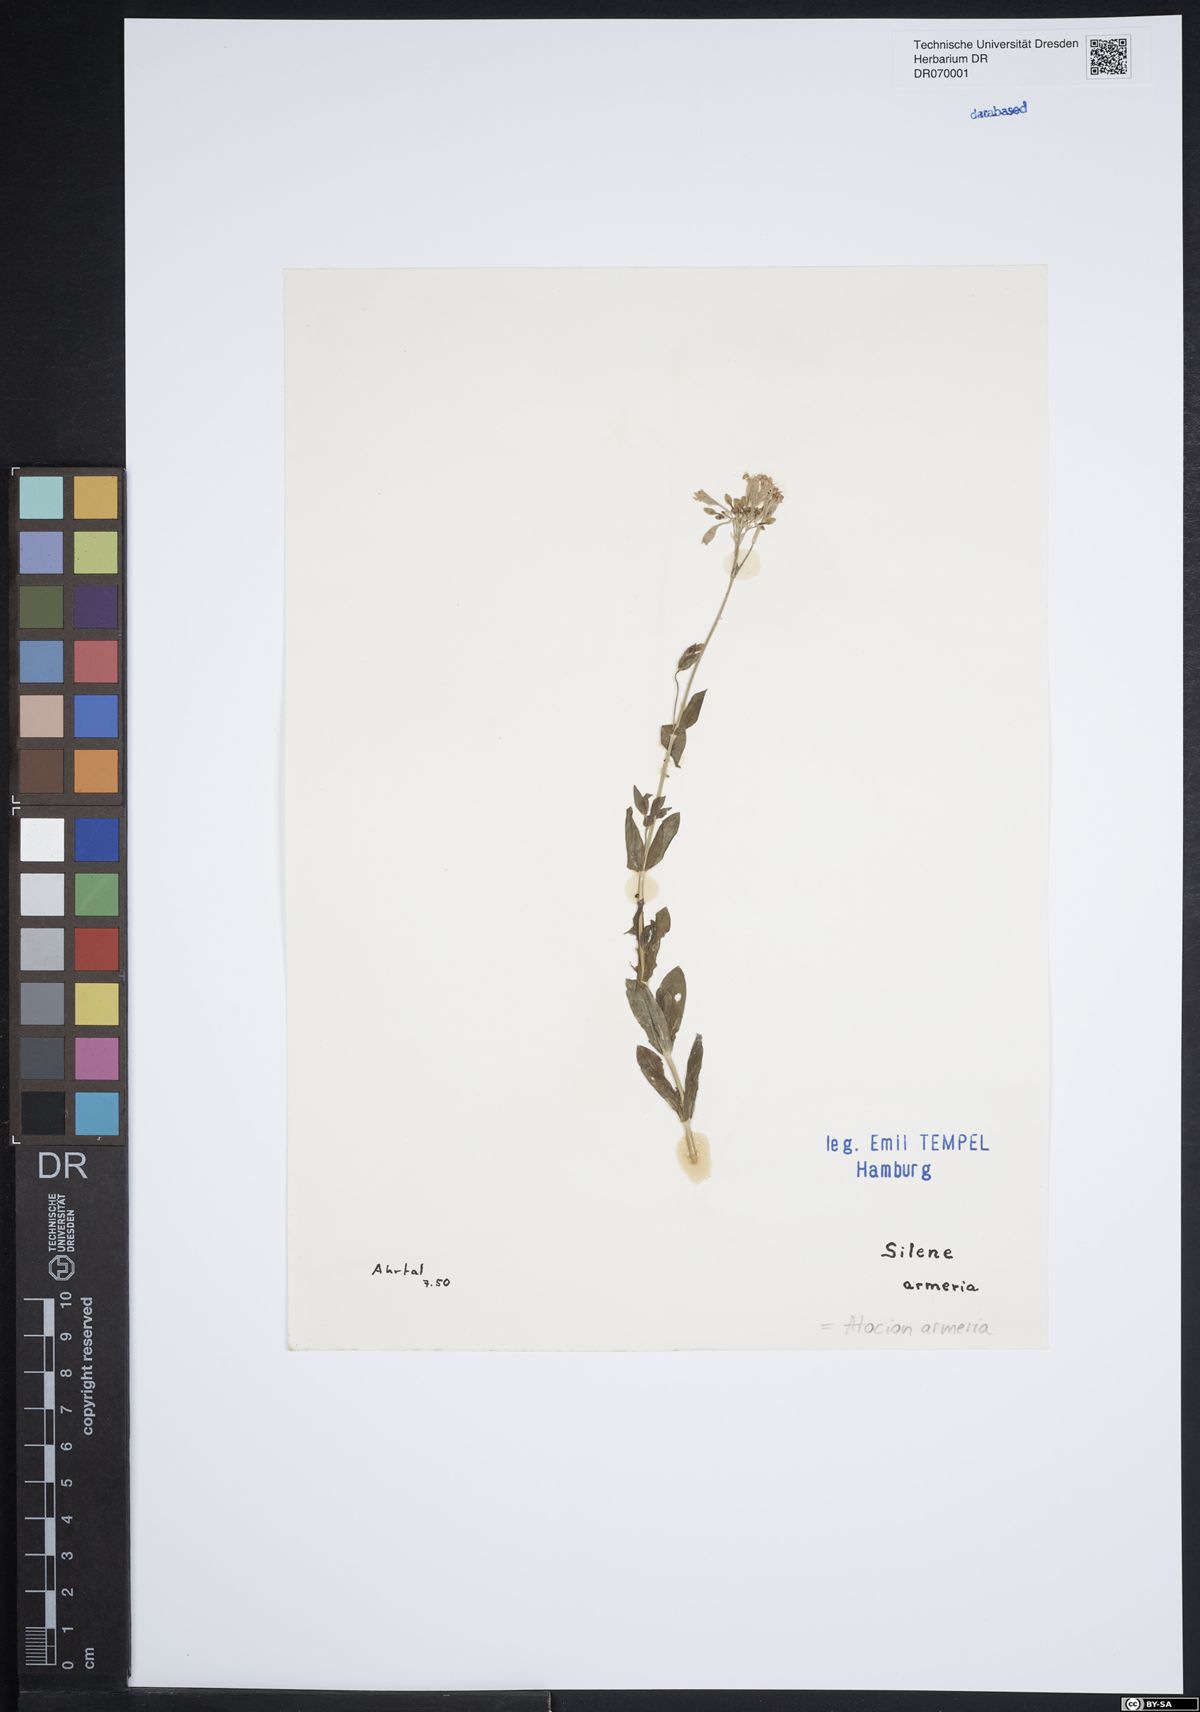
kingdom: Plantae
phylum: Tracheophyta
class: Magnoliopsida
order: Caryophyllales
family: Caryophyllaceae
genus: Atocion
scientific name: Atocion armeria
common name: Sweet william catchfly
